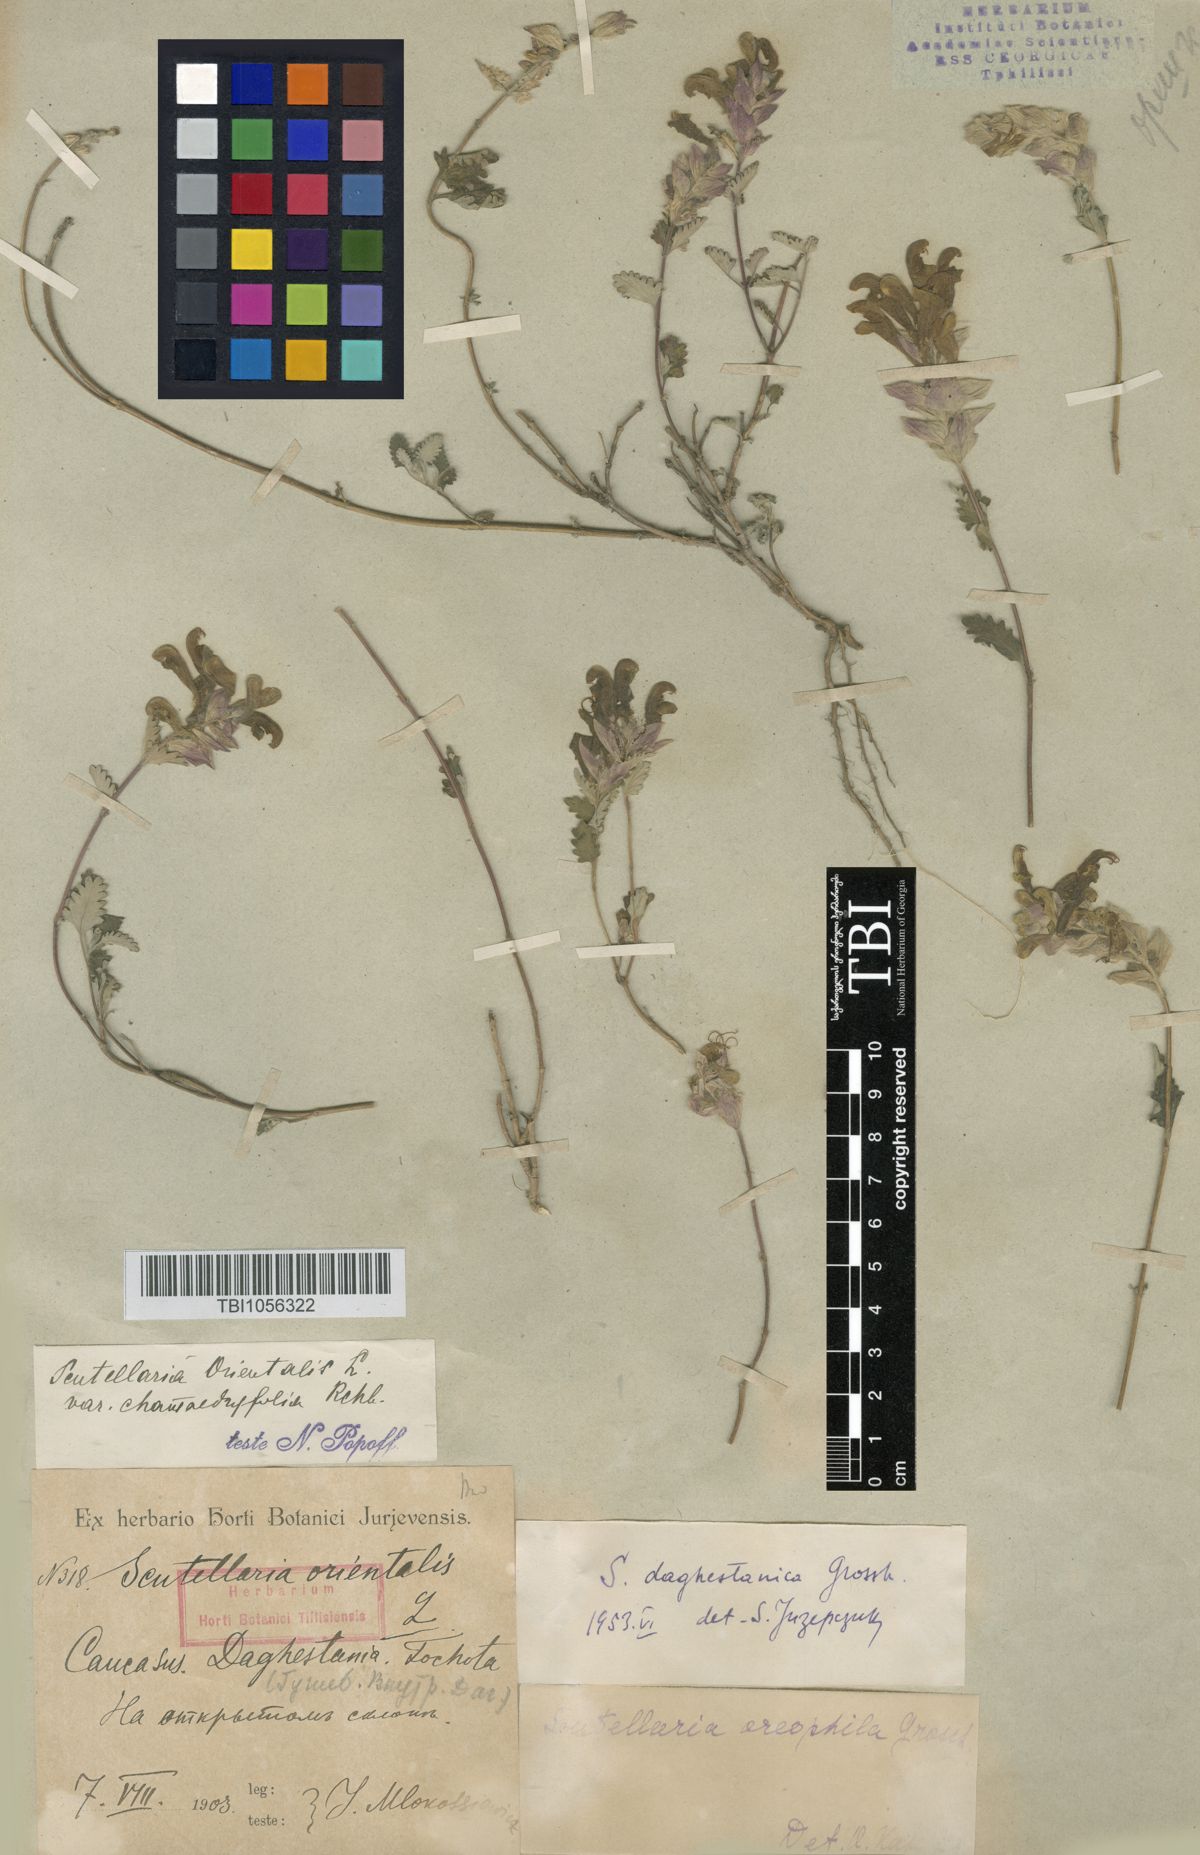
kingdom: Plantae
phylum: Tracheophyta
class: Magnoliopsida
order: Lamiales
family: Lamiaceae
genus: Scutellaria
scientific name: Scutellaria daghestanica
